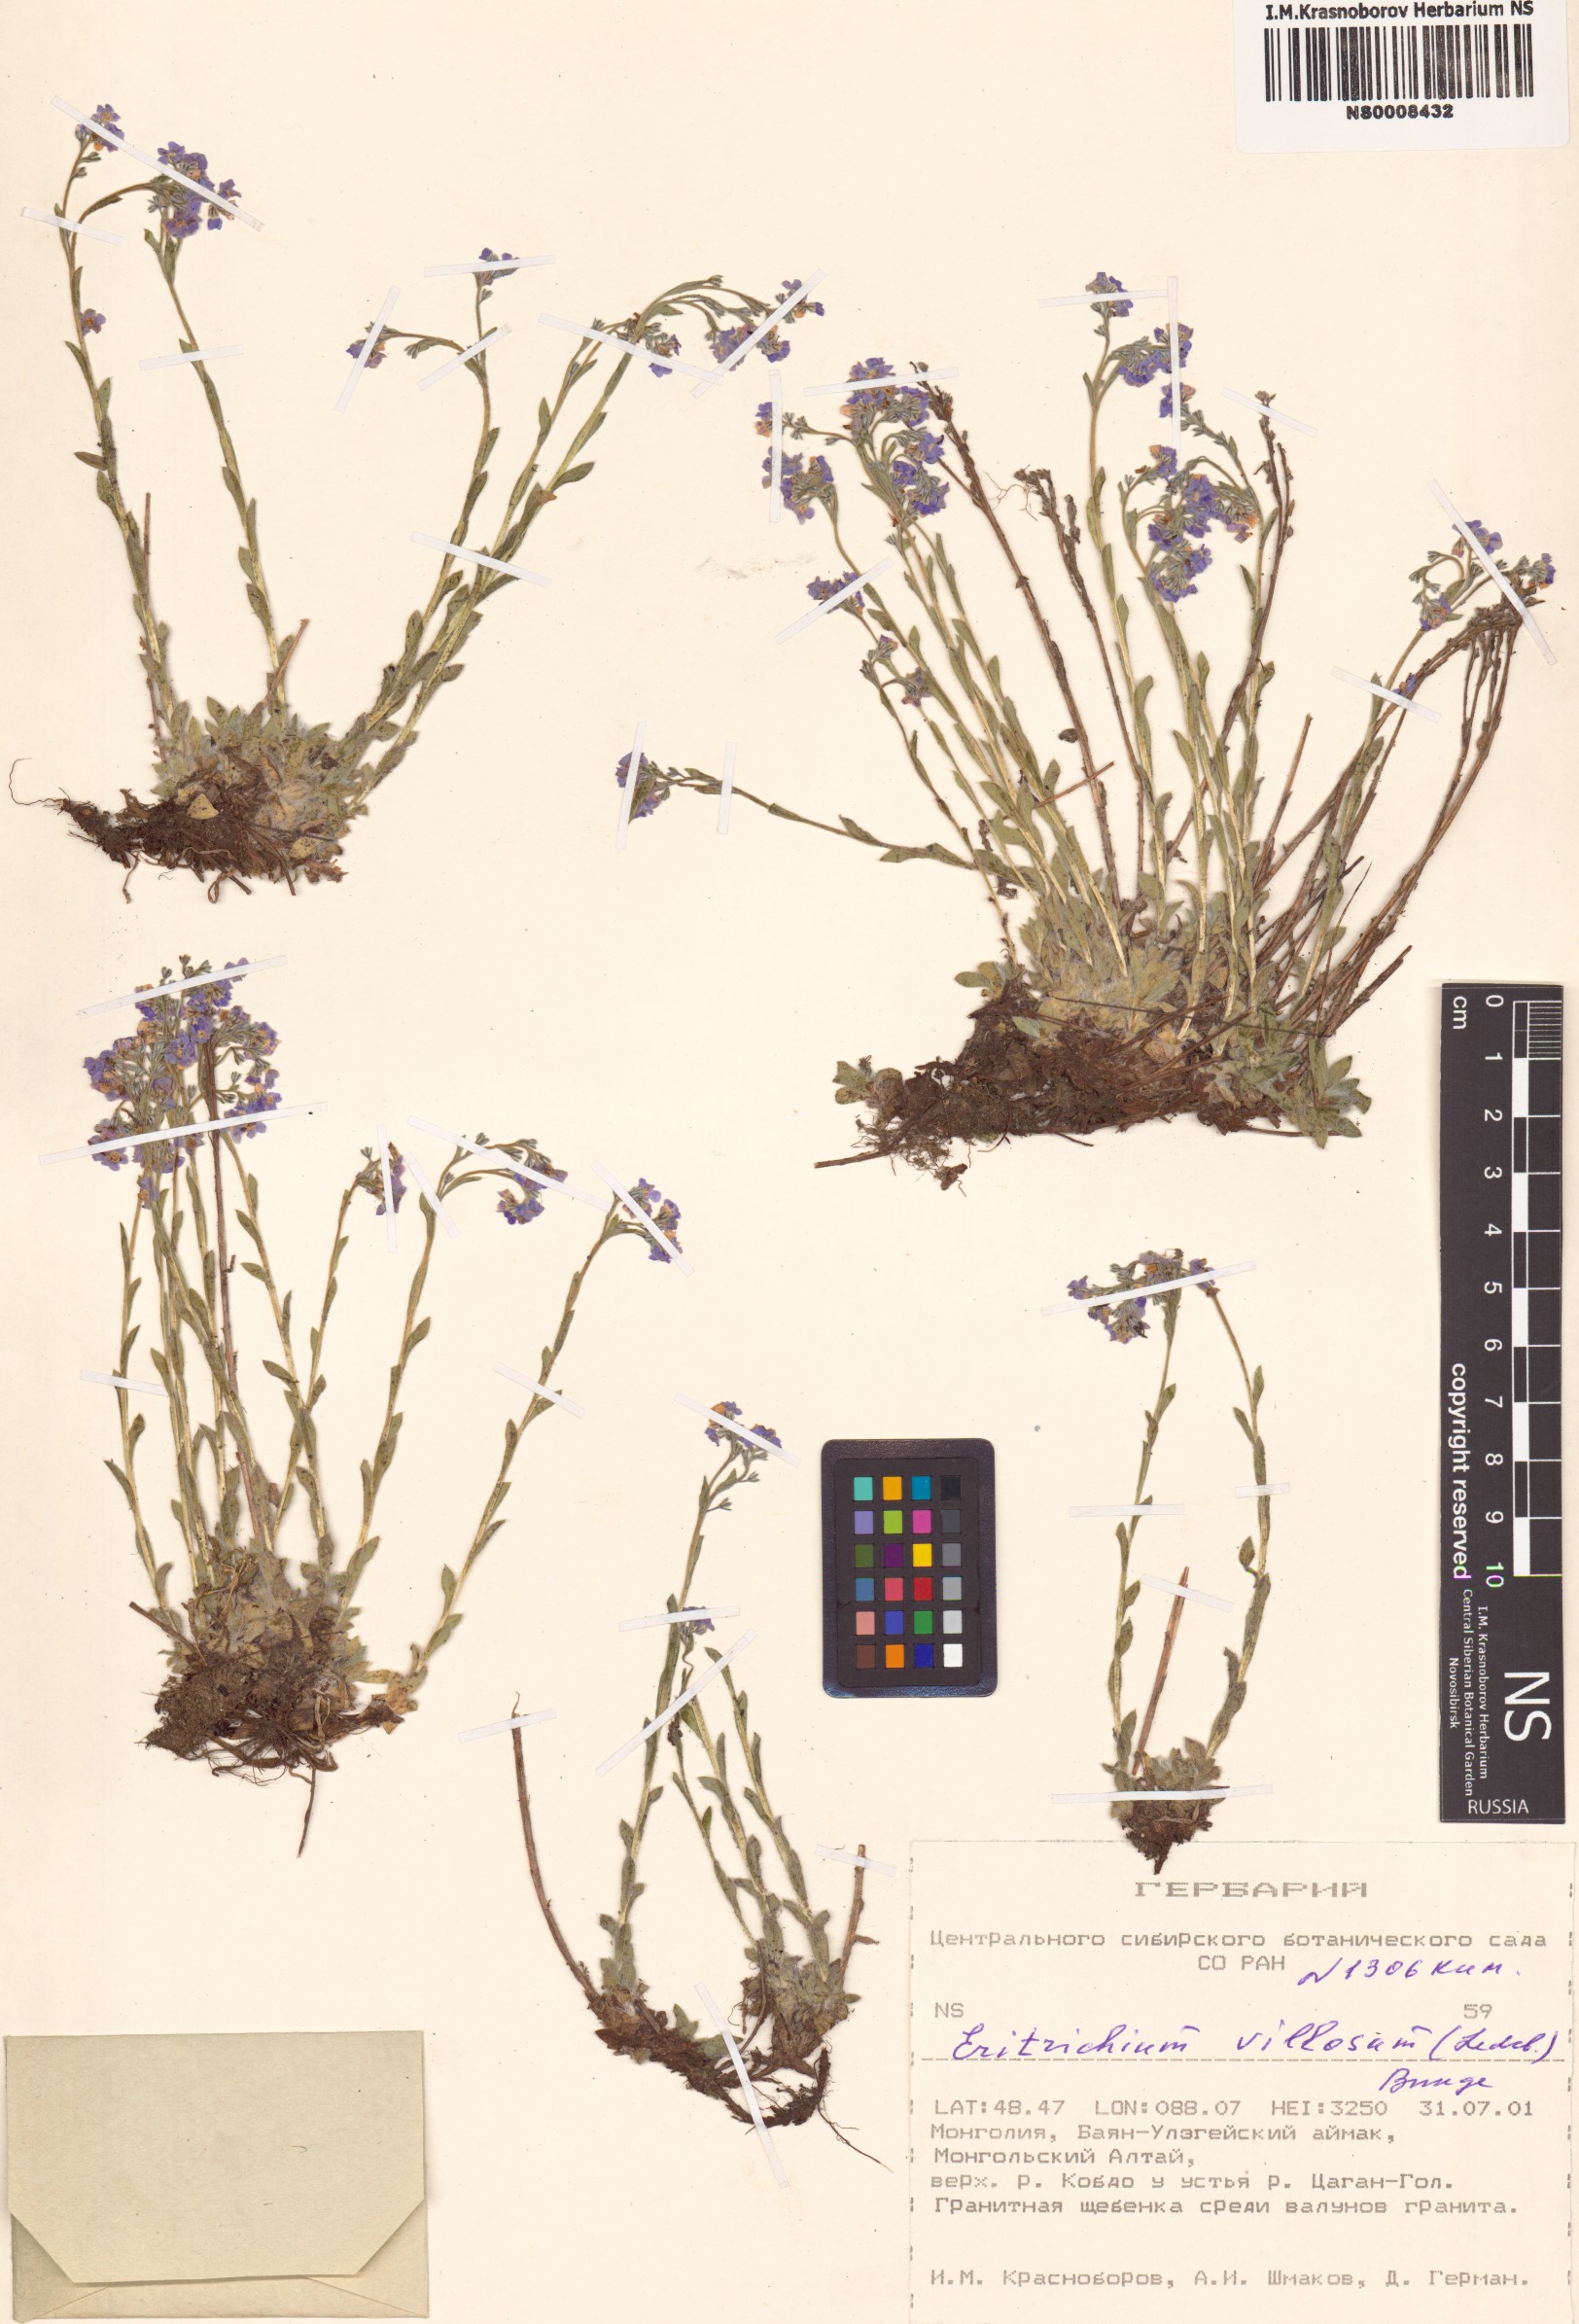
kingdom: Plantae
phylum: Tracheophyta
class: Magnoliopsida
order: Boraginales
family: Boraginaceae
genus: Eritrichium
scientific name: Eritrichium villosum
